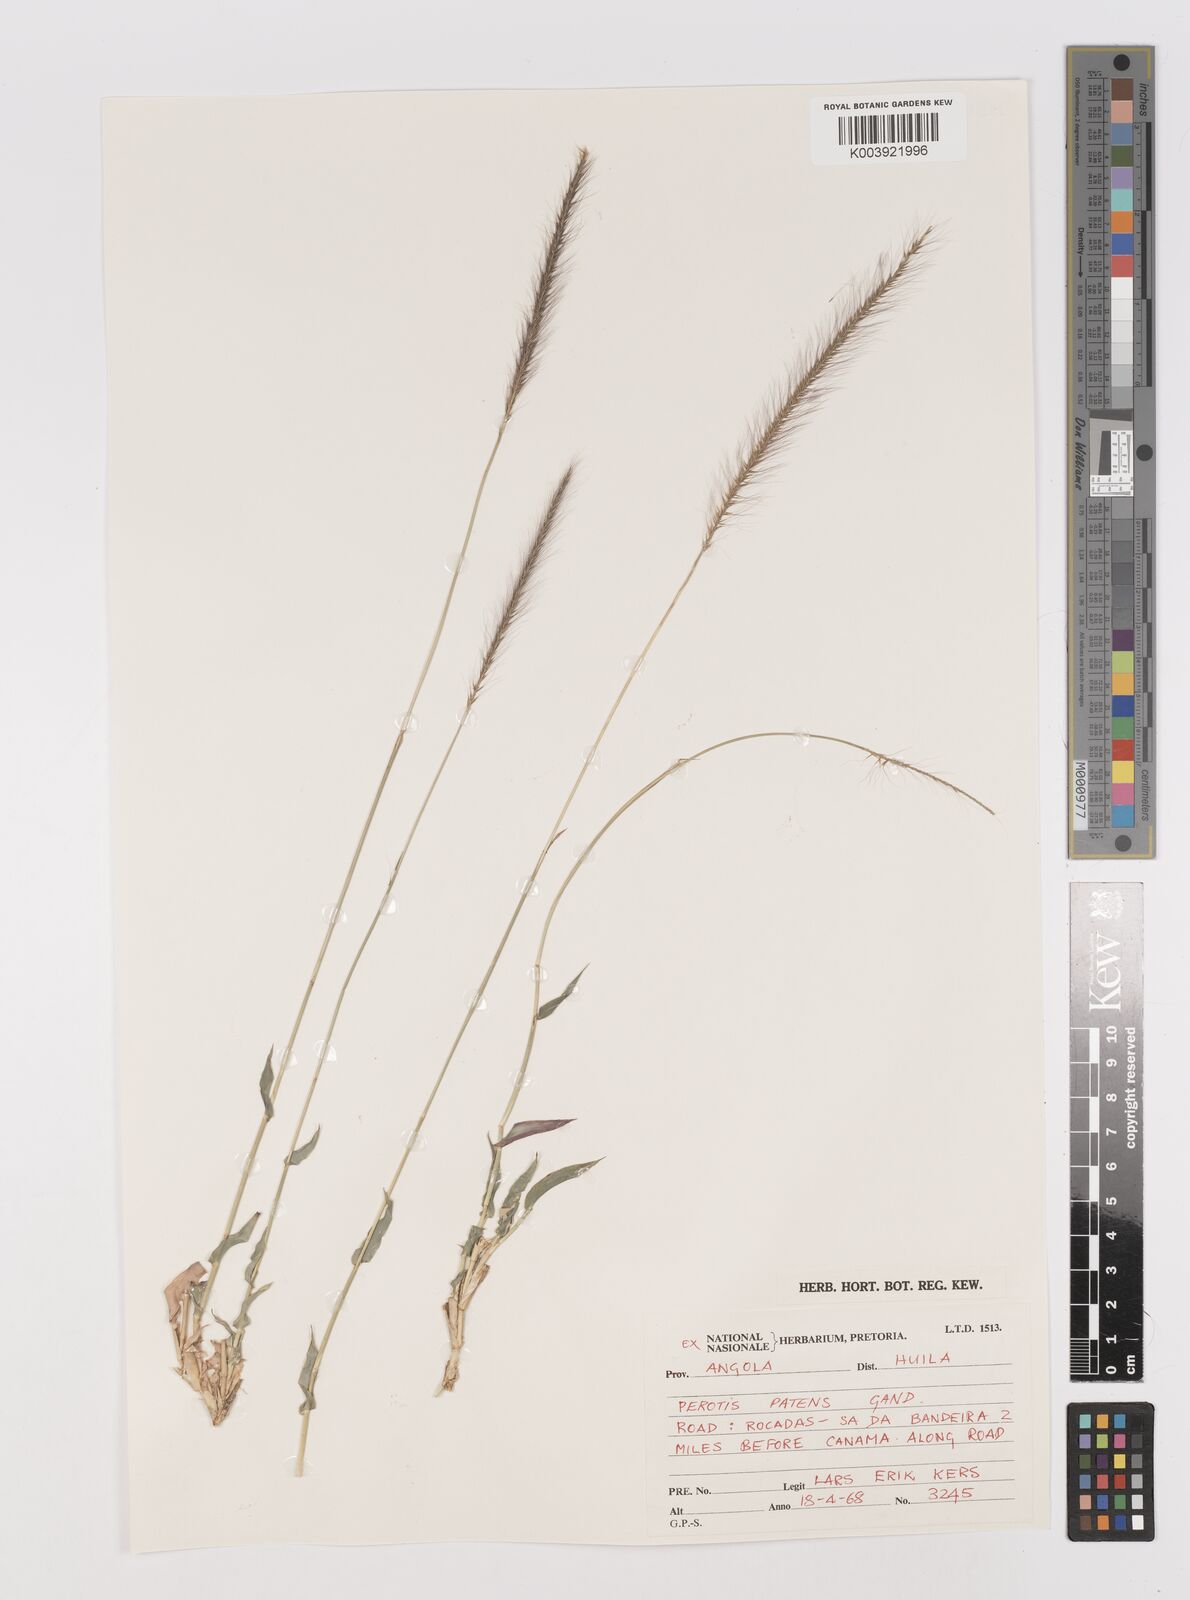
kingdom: Plantae
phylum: Tracheophyta
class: Liliopsida
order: Poales
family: Poaceae
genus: Perotis
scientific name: Perotis patens
